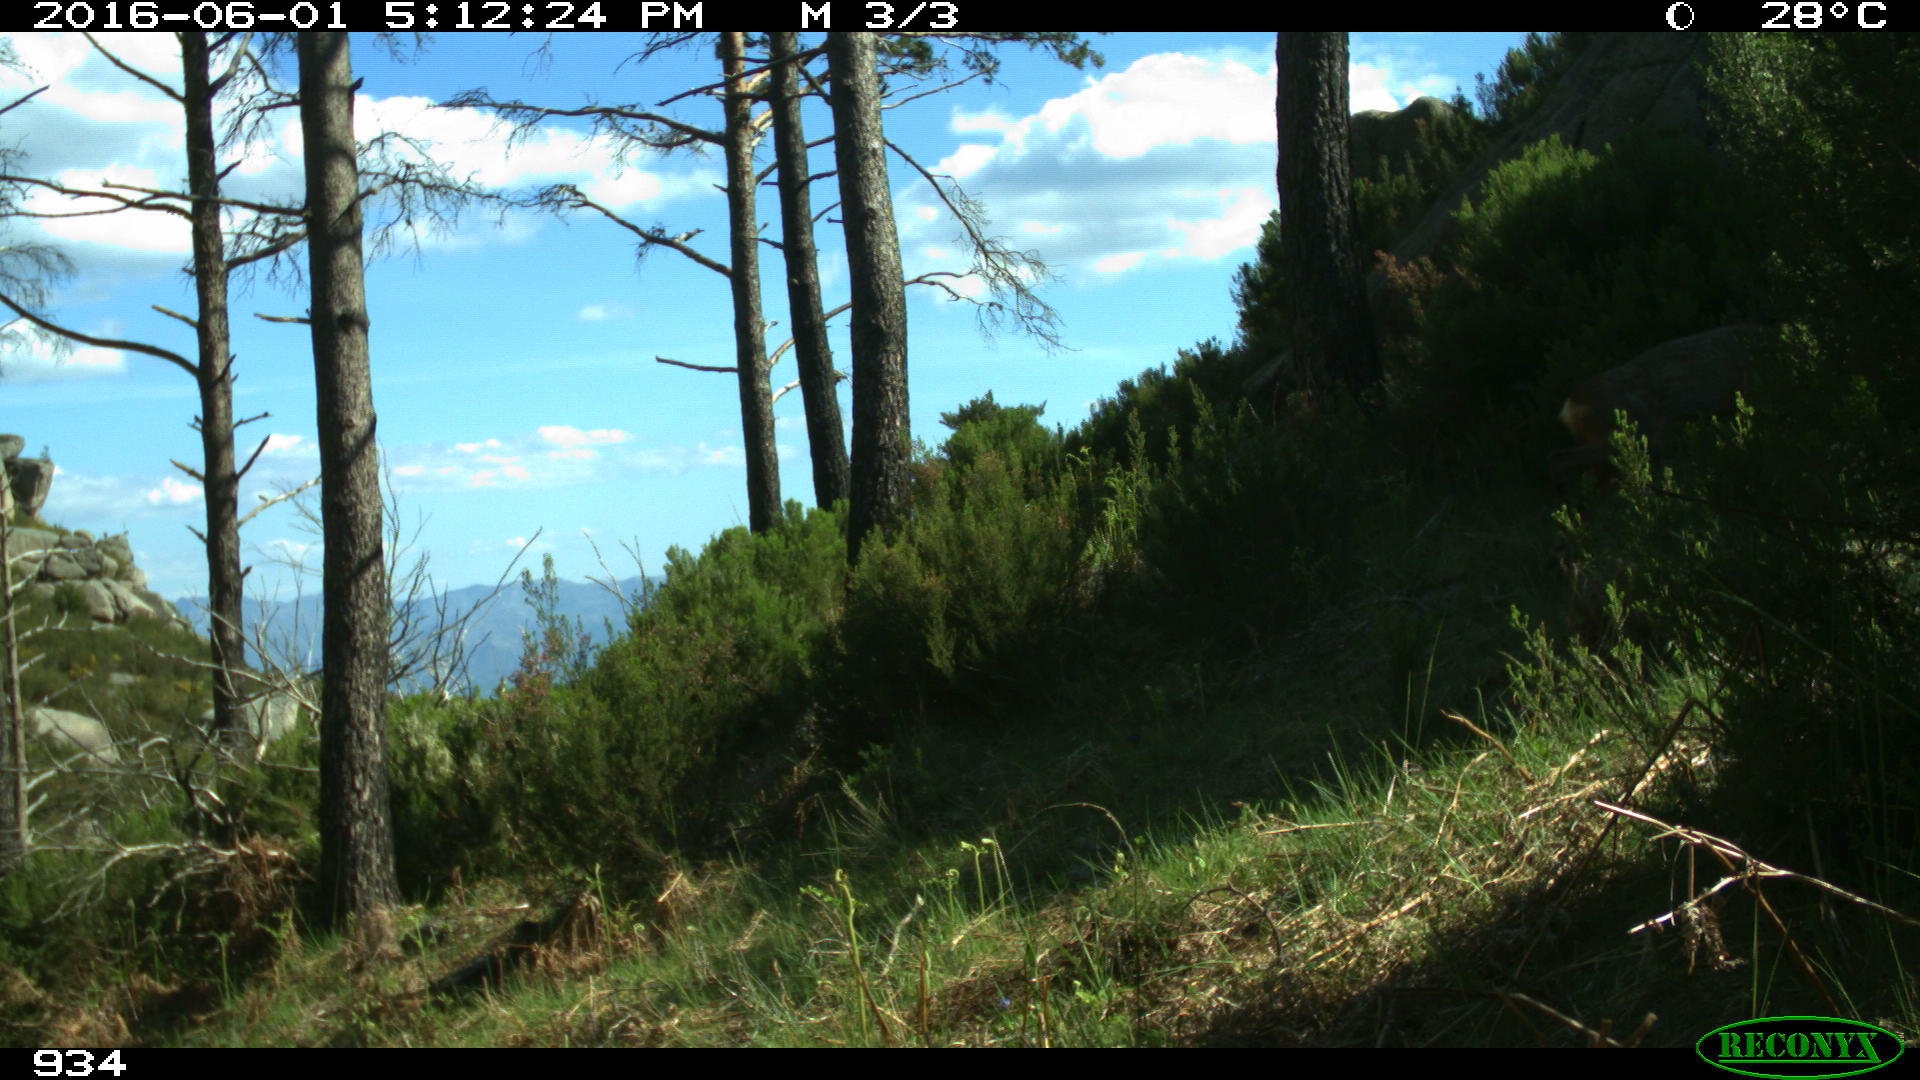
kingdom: Animalia
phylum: Chordata
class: Mammalia
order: Artiodactyla
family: Cervidae
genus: Capreolus
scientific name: Capreolus capreolus
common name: Western roe deer
